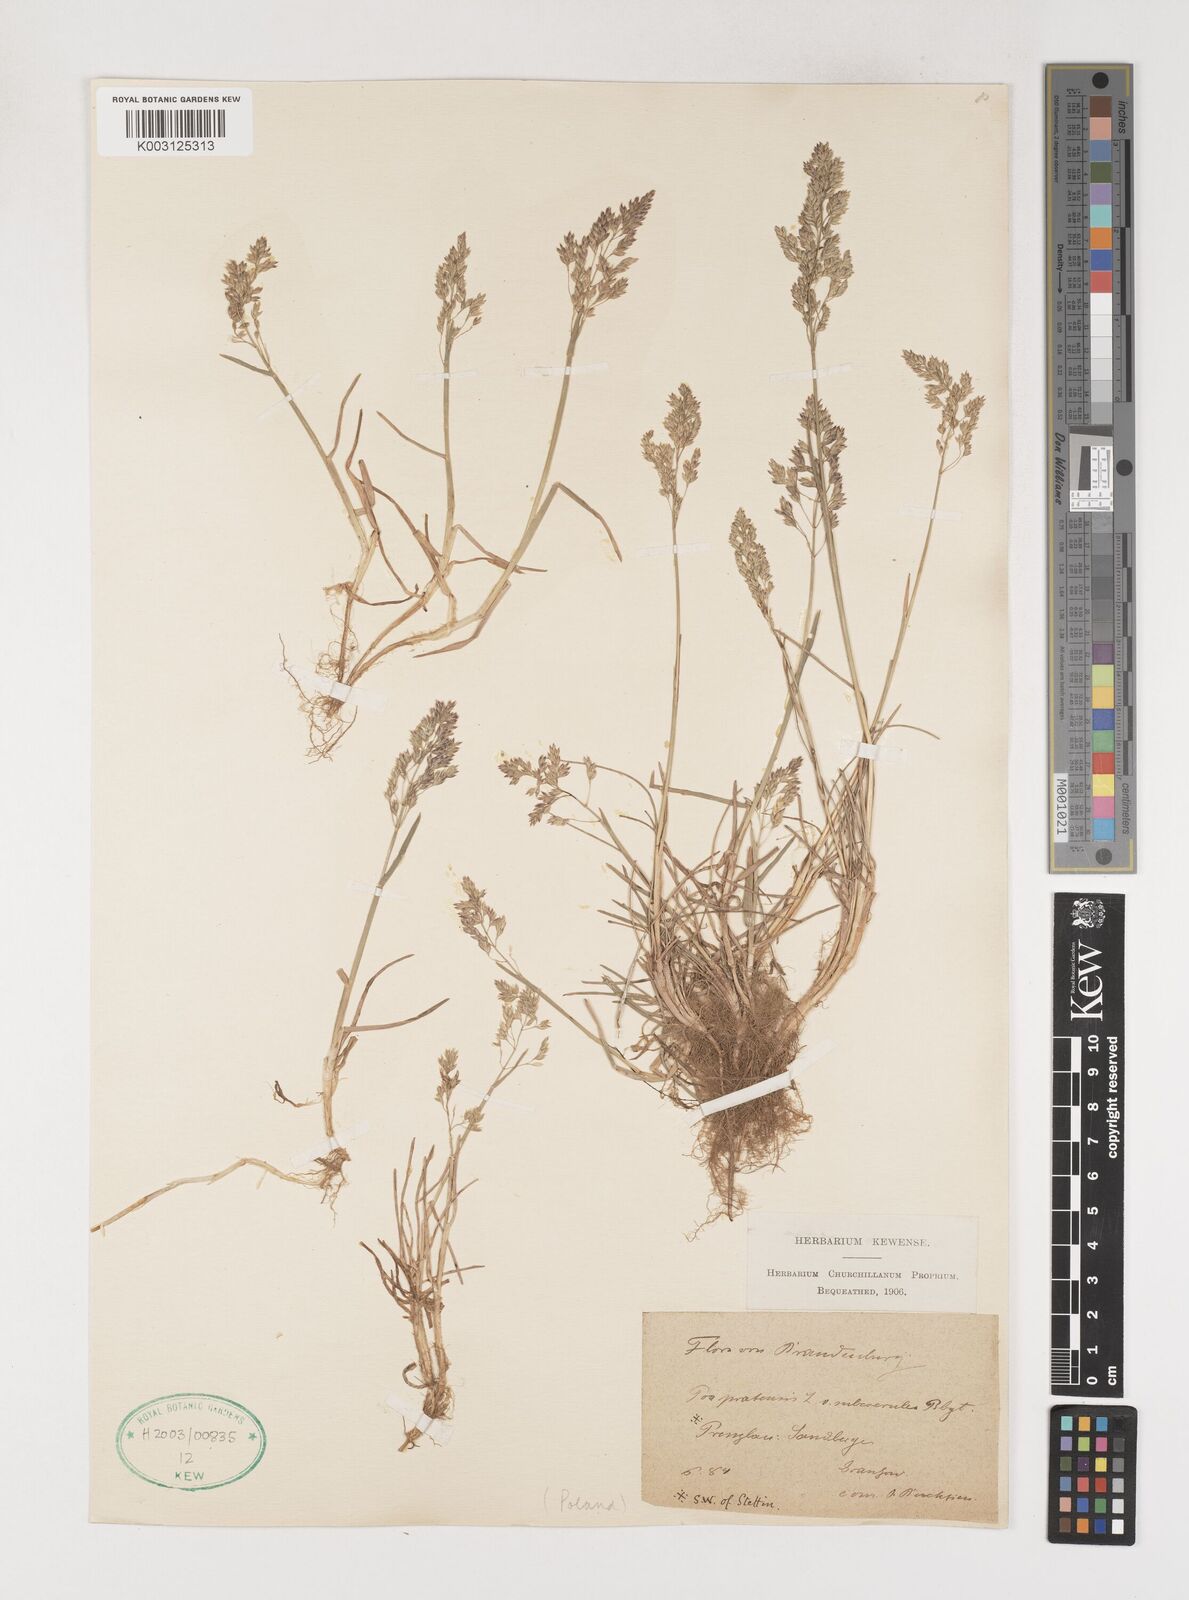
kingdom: Plantae
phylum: Tracheophyta
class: Liliopsida
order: Poales
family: Poaceae
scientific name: Poaceae
